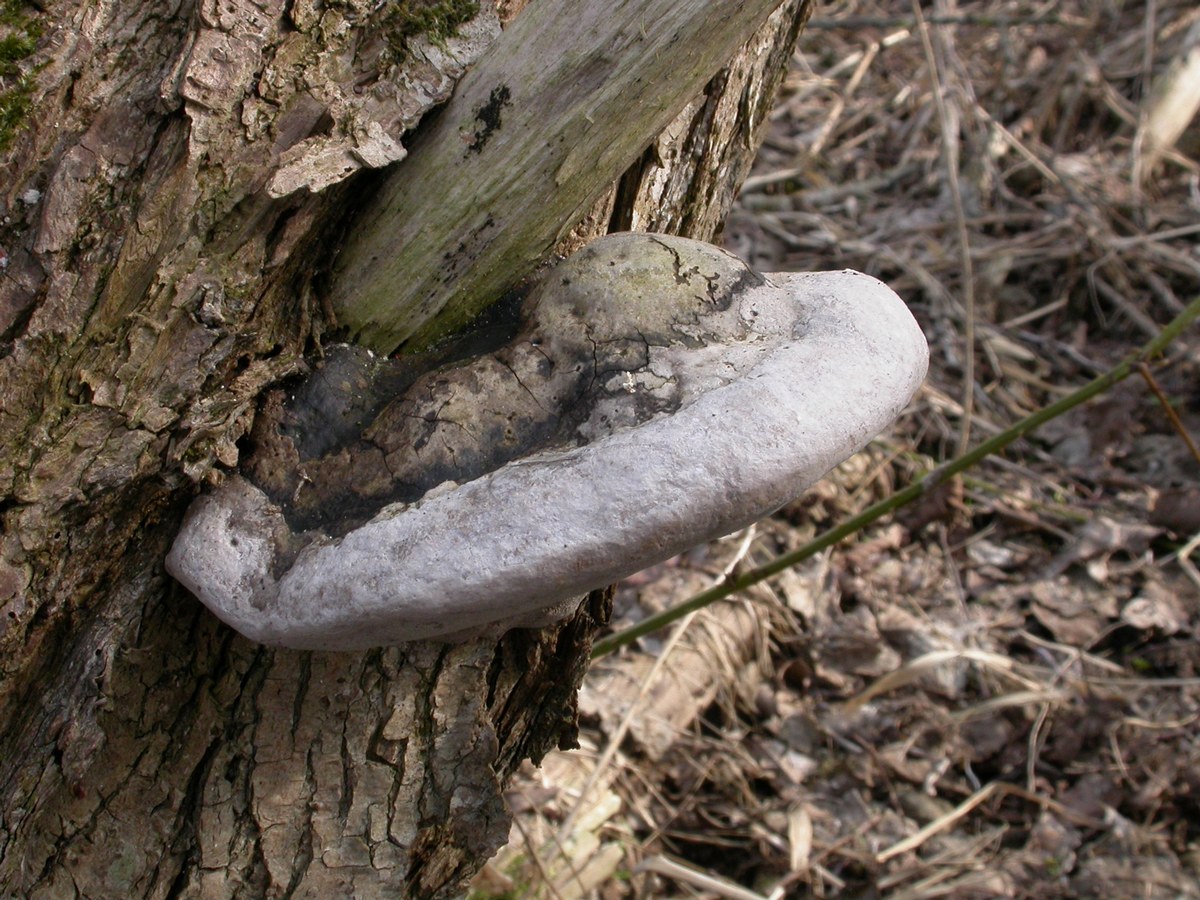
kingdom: Fungi
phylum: Basidiomycota
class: Agaricomycetes
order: Hymenochaetales
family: Hymenochaetaceae
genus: Phellinus
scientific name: Phellinus igniarius
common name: almindelig ildporesvamp
